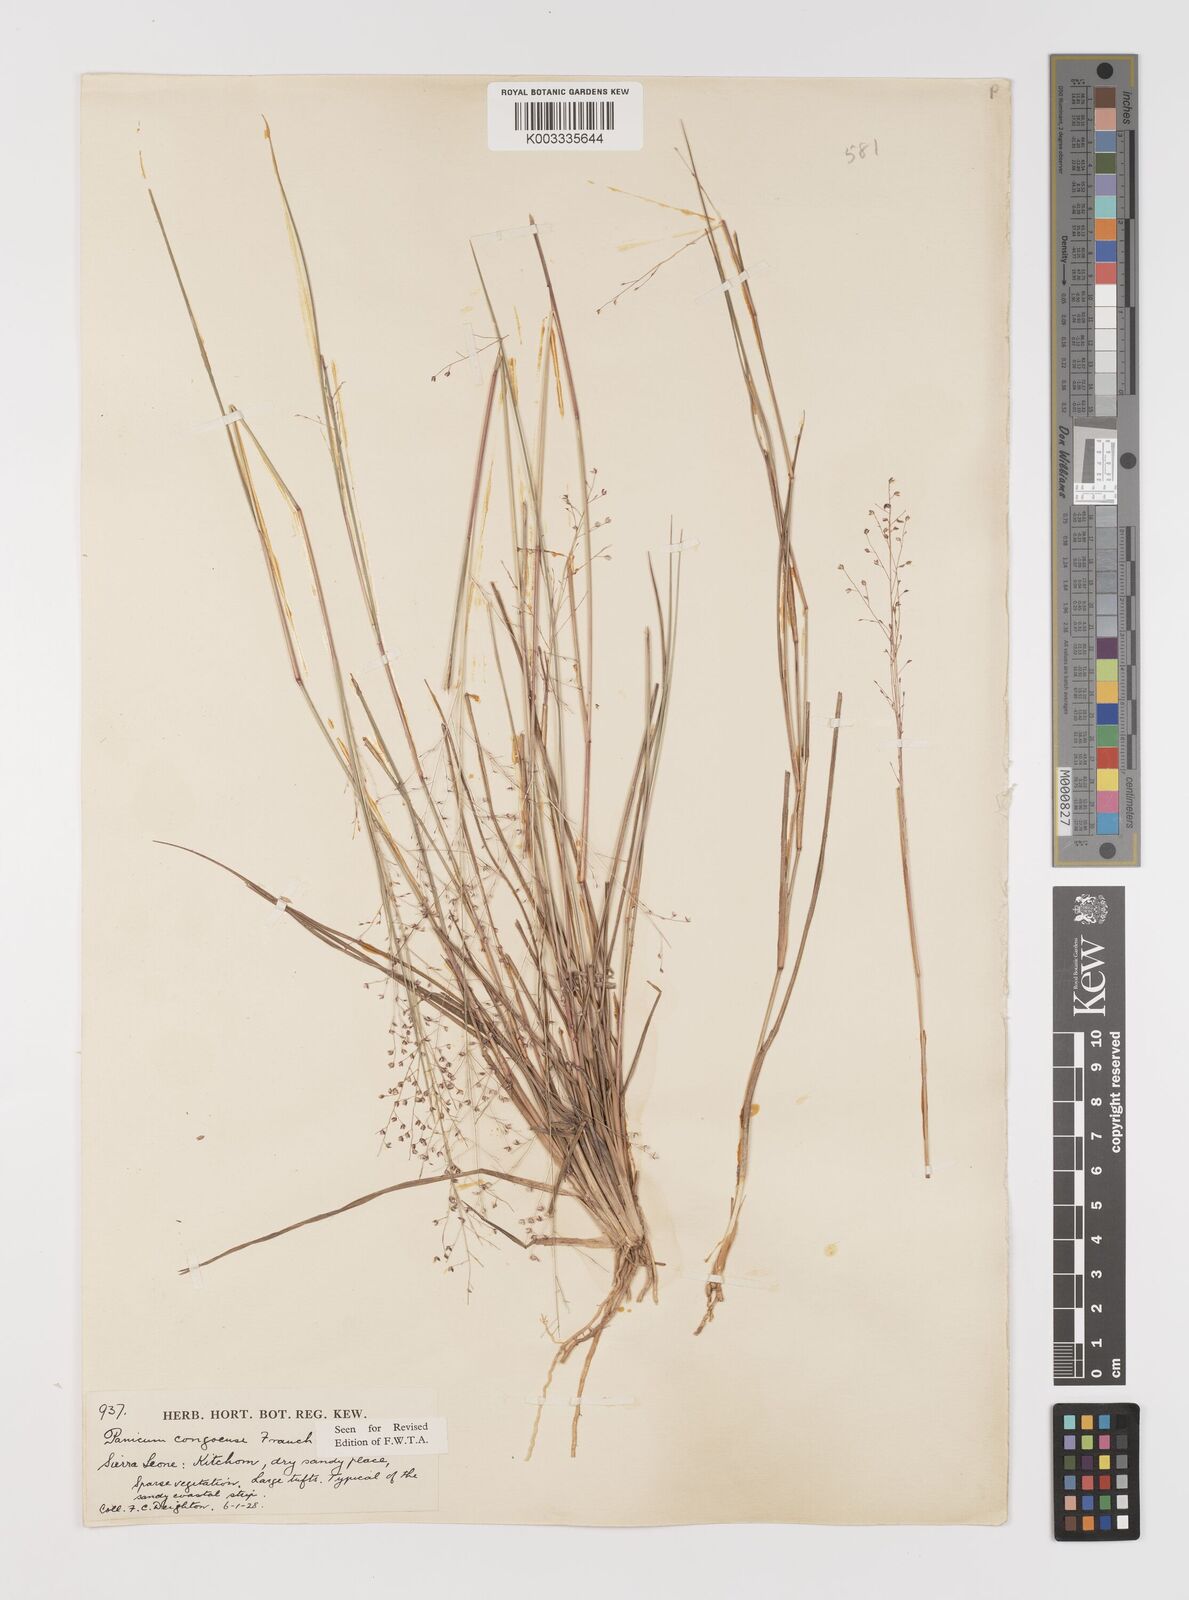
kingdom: Plantae
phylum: Tracheophyta
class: Liliopsida
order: Poales
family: Poaceae
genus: Panicum
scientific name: Panicum congoense
